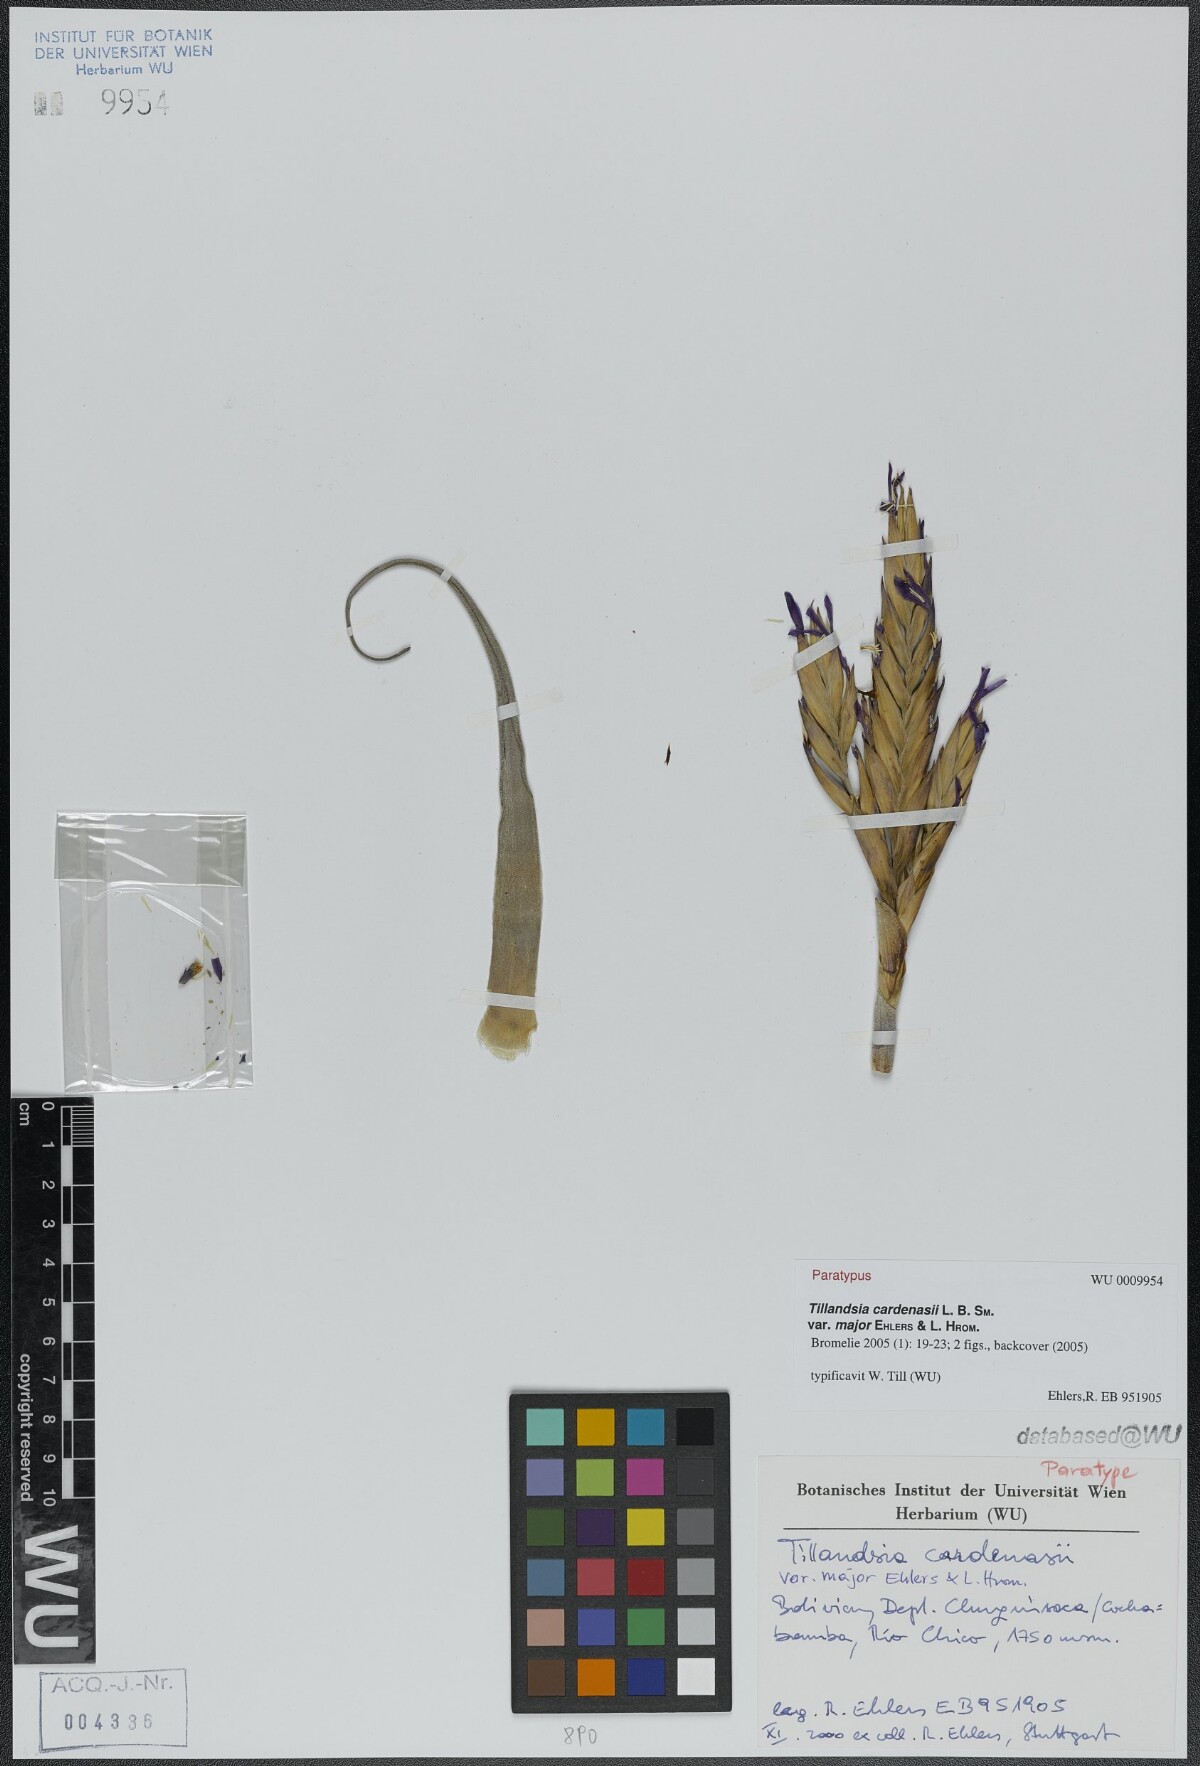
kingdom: Plantae
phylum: Tracheophyta
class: Liliopsida
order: Poales
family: Bromeliaceae
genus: Tillandsia
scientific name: Tillandsia cardenasii
